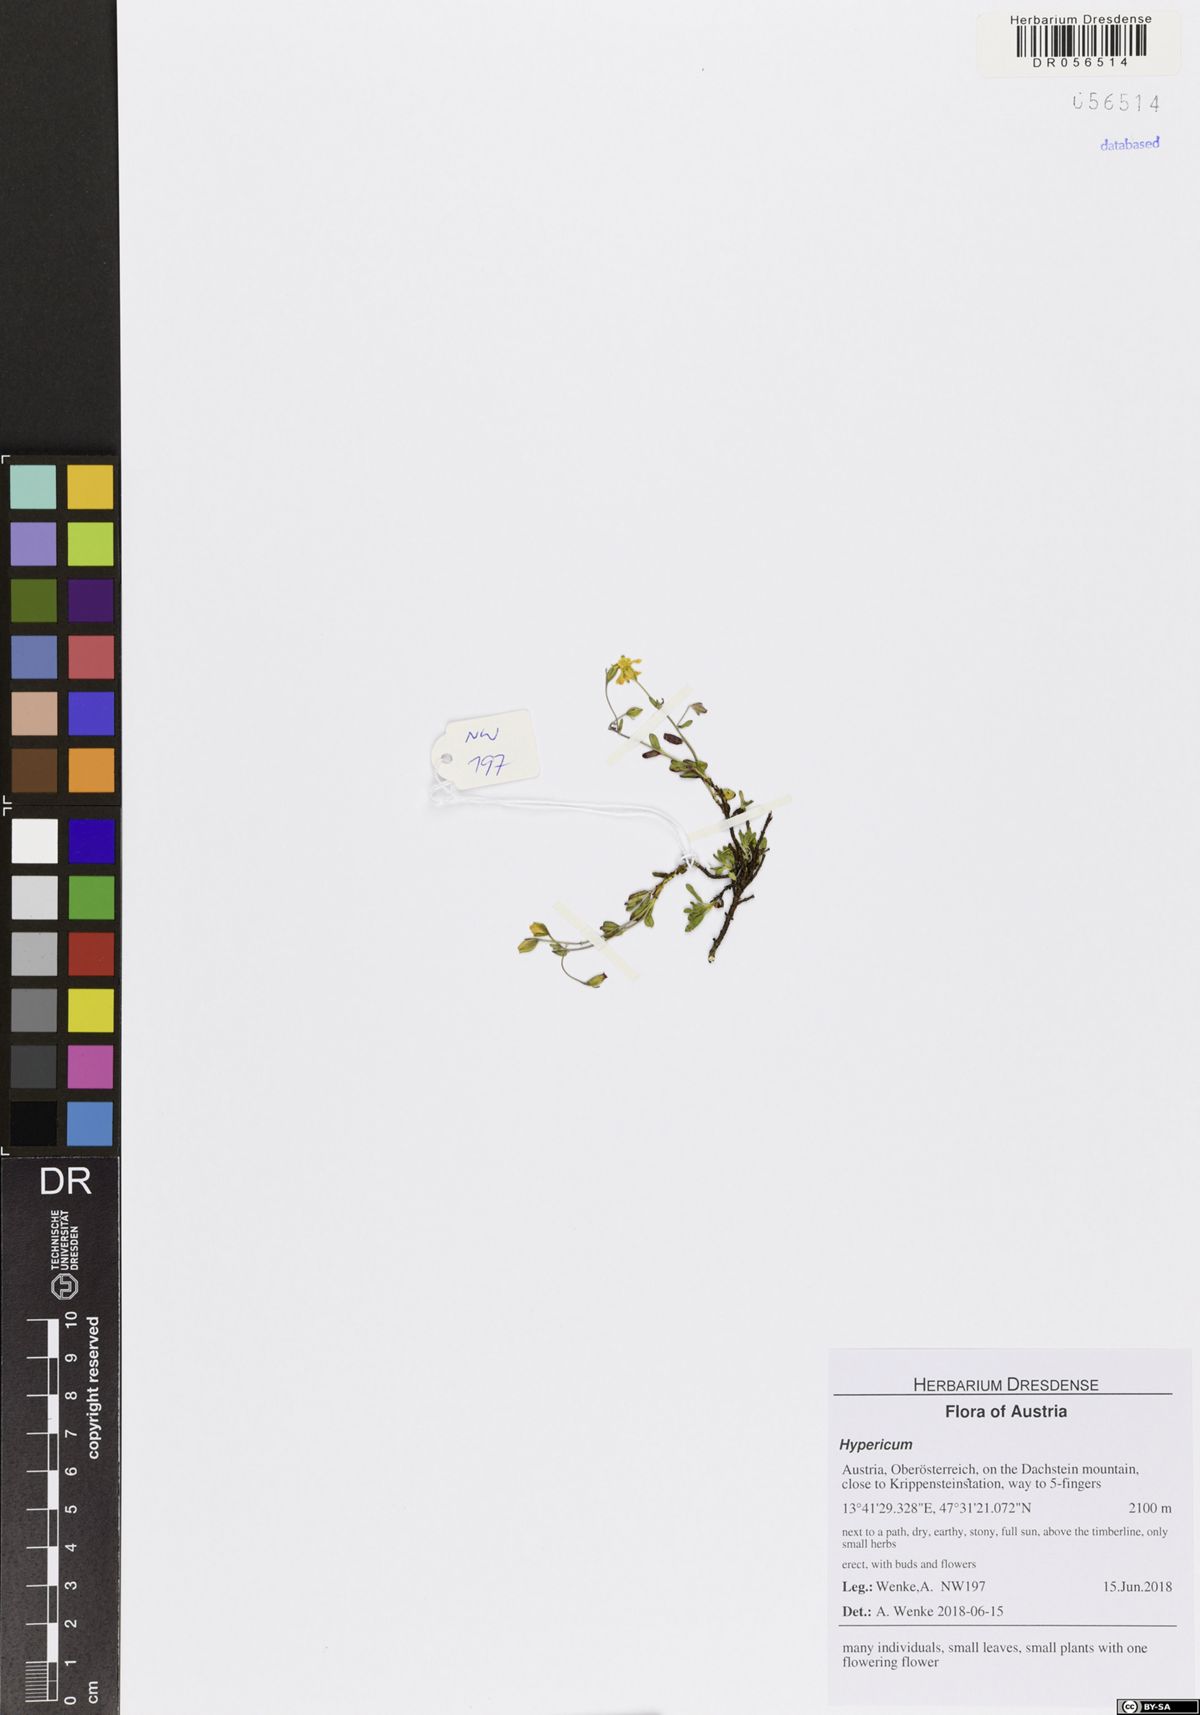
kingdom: Plantae
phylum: Tracheophyta
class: Magnoliopsida
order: Malpighiales
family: Hypericaceae
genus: Hypericum
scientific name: Hypericum
